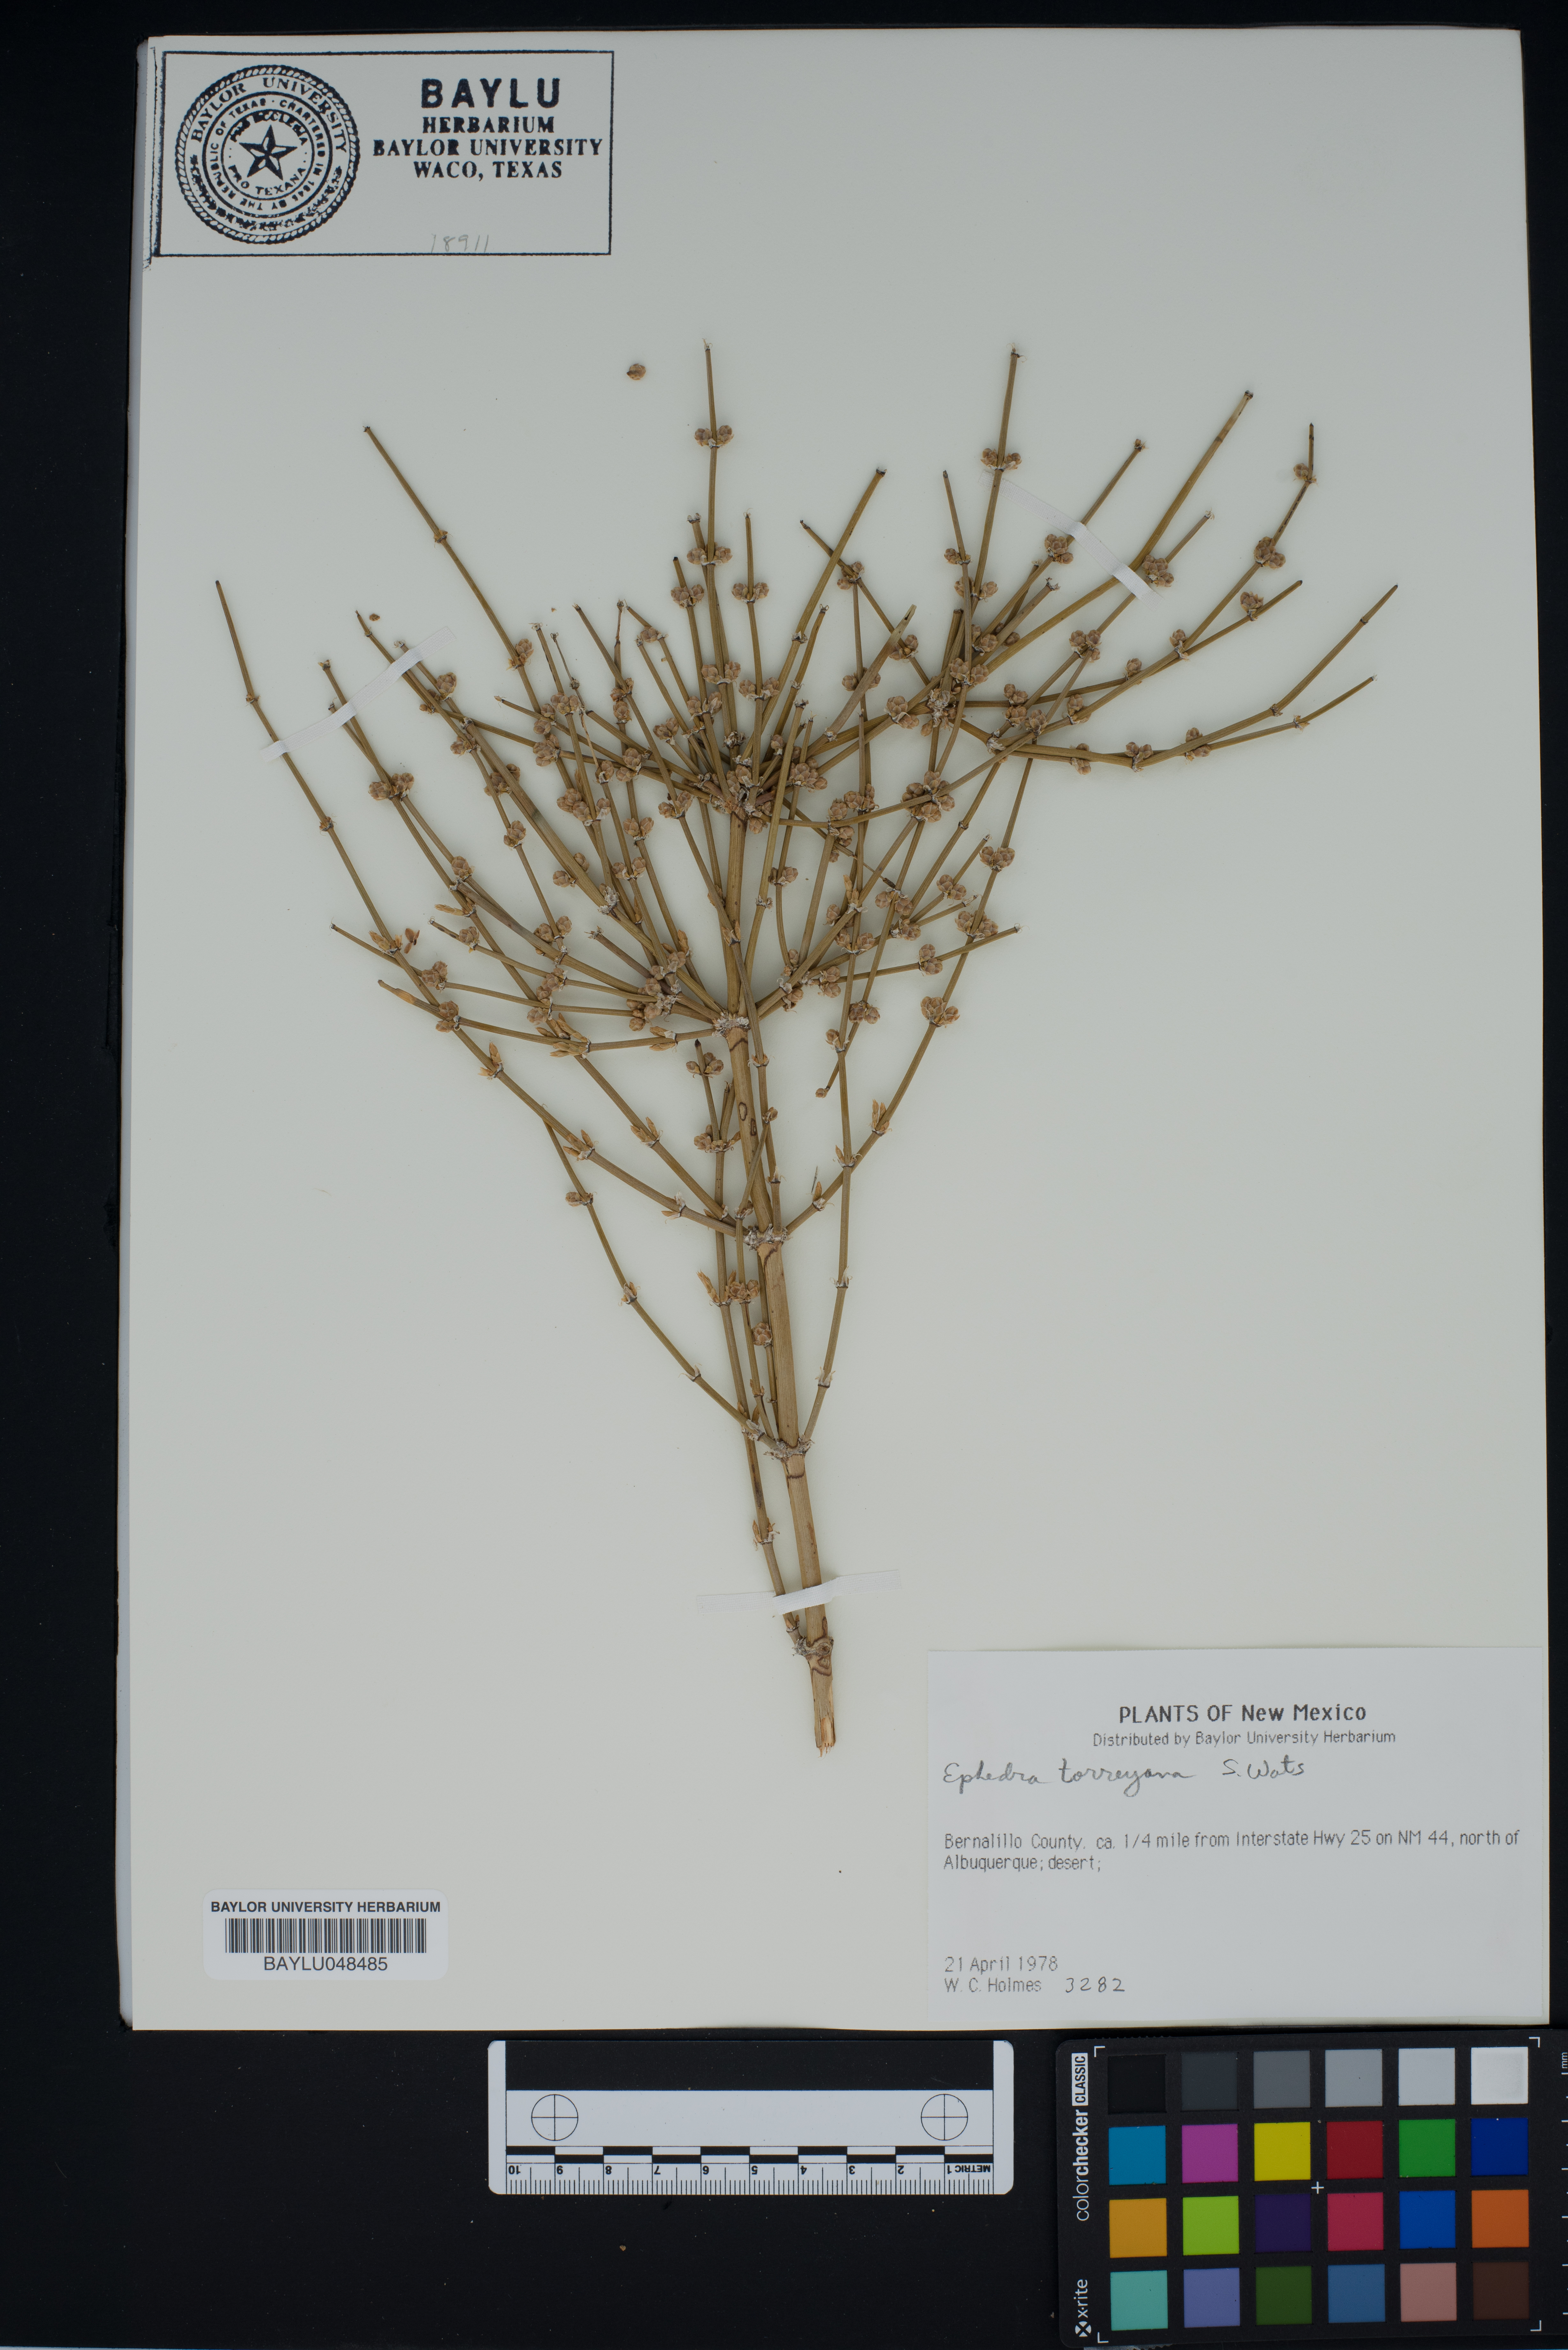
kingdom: Plantae
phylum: Tracheophyta
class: Gnetopsida
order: Ephedrales
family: Ephedraceae
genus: Ephedra
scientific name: Ephedra torreyana
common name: Torrey ephedra
